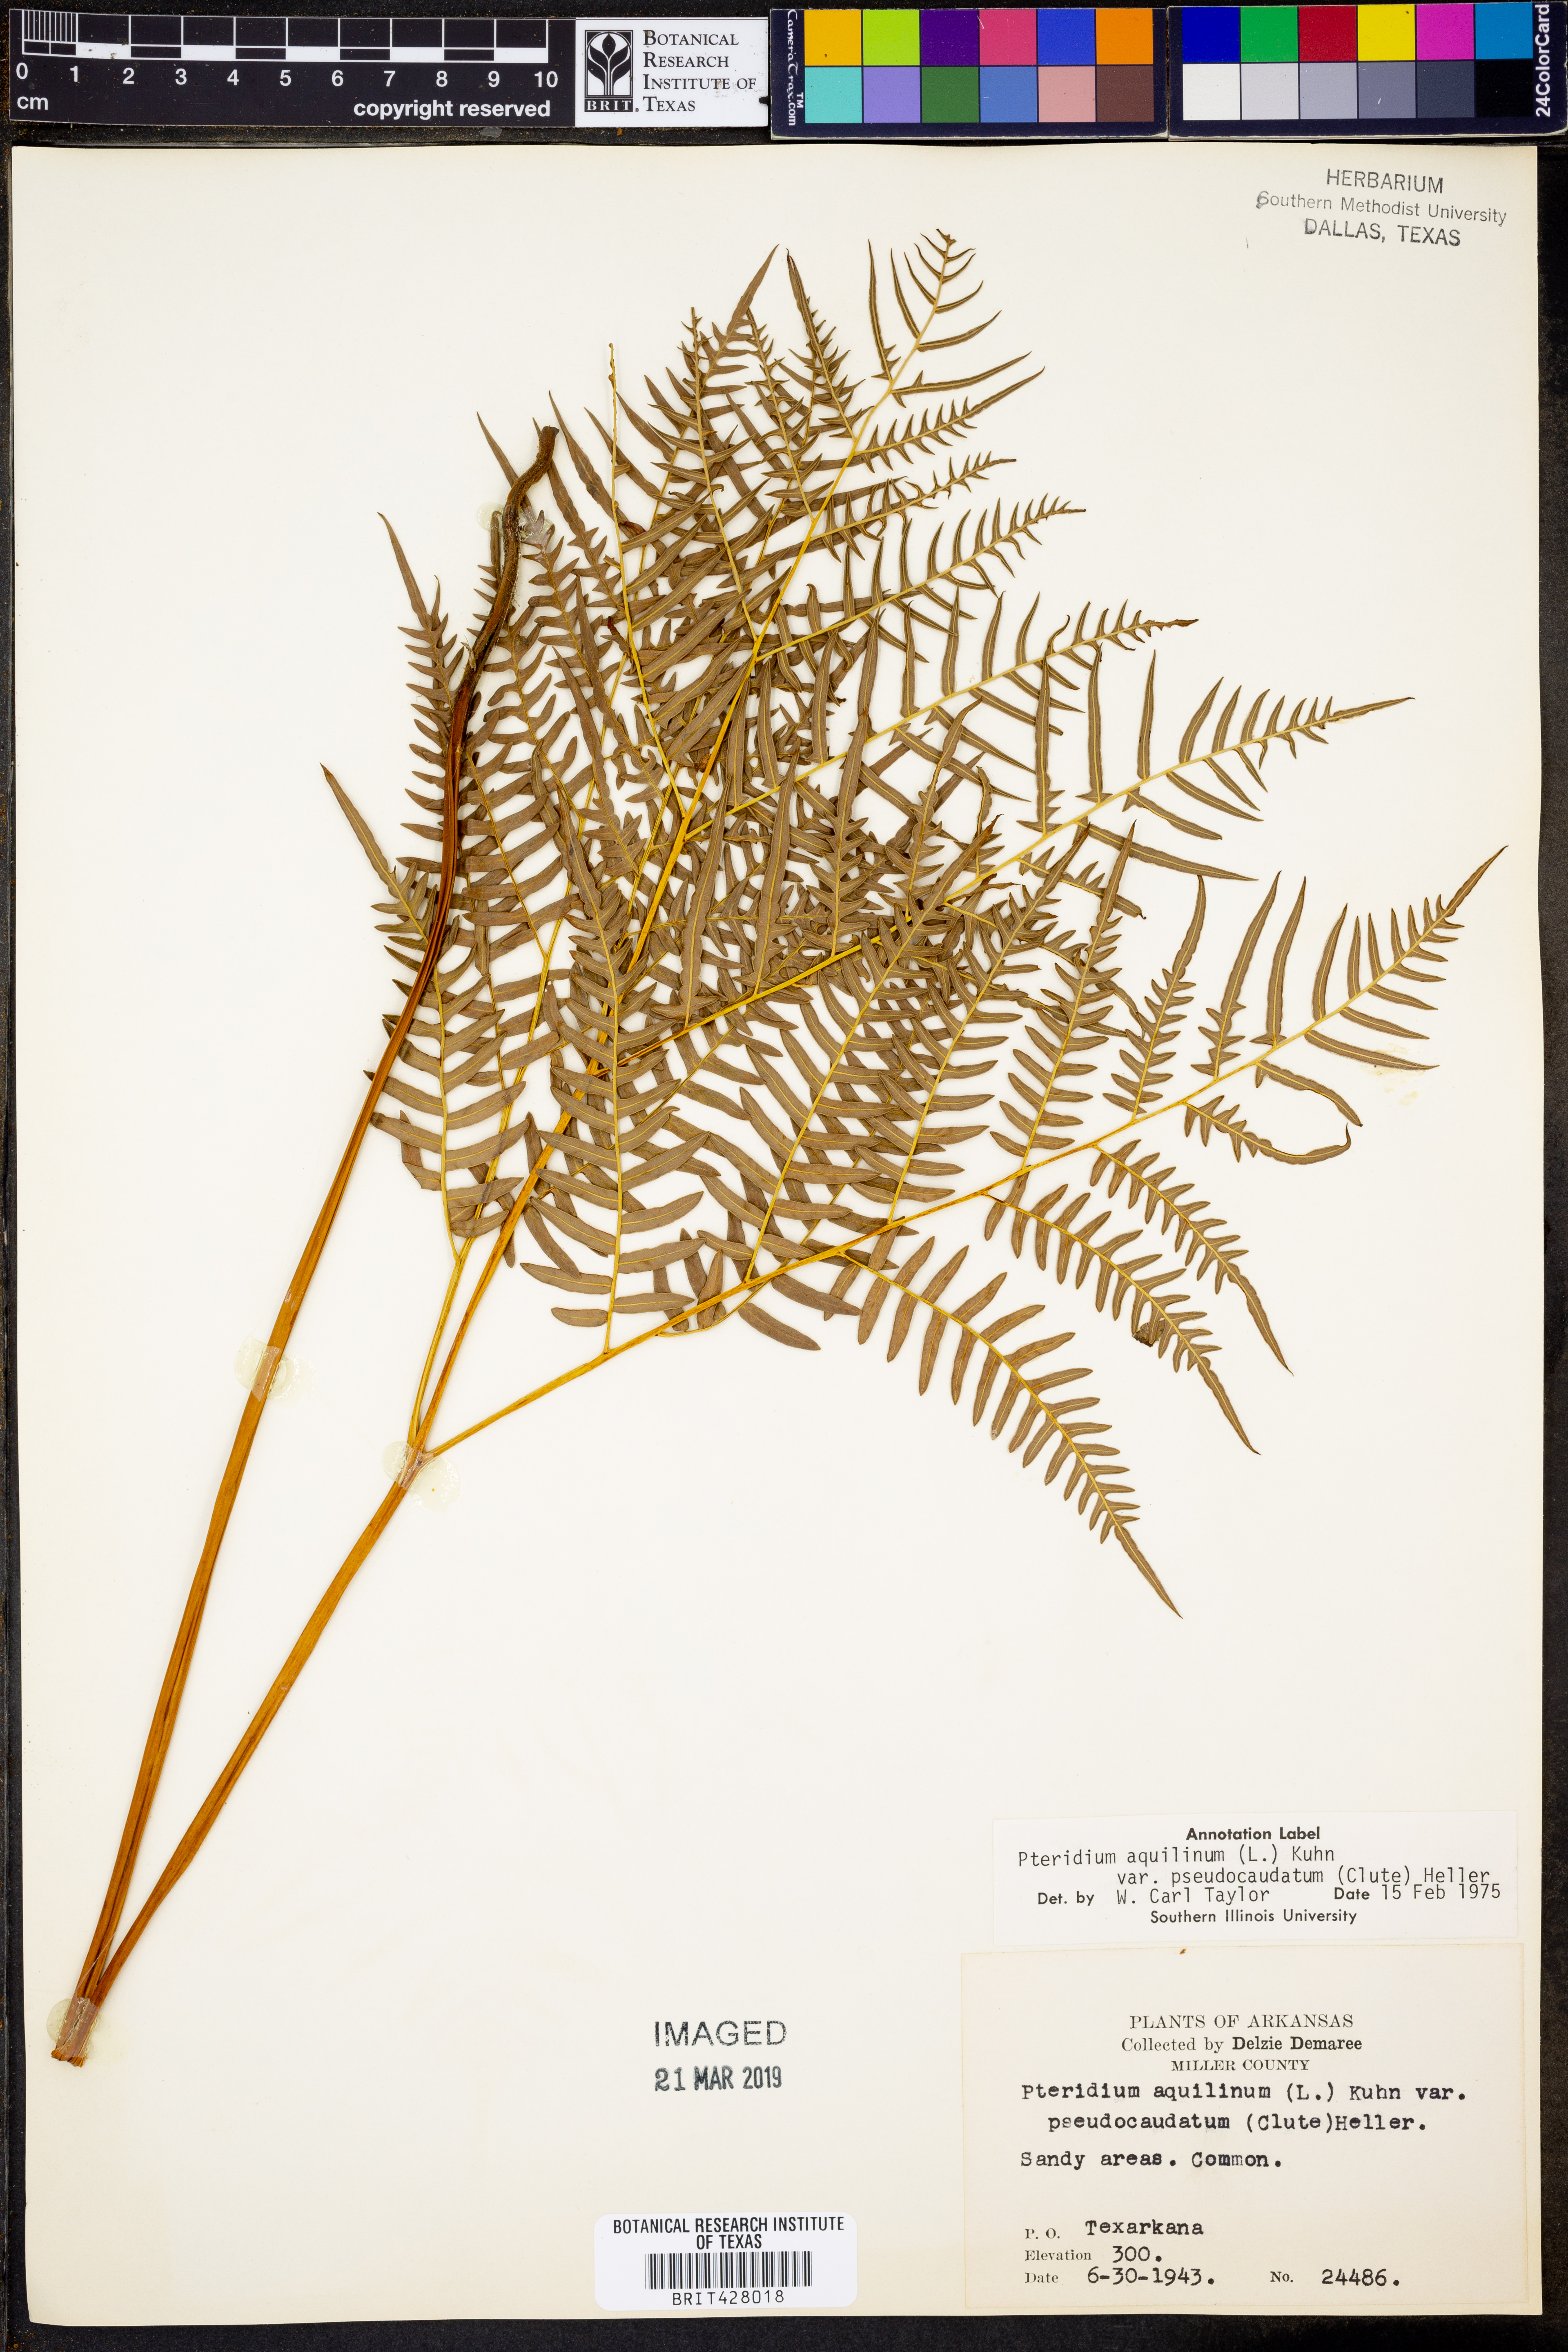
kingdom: Plantae
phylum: Tracheophyta
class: Polypodiopsida
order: Polypodiales
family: Dennstaedtiaceae
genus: Pteridium
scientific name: Pteridium aquilinum
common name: Bracken
